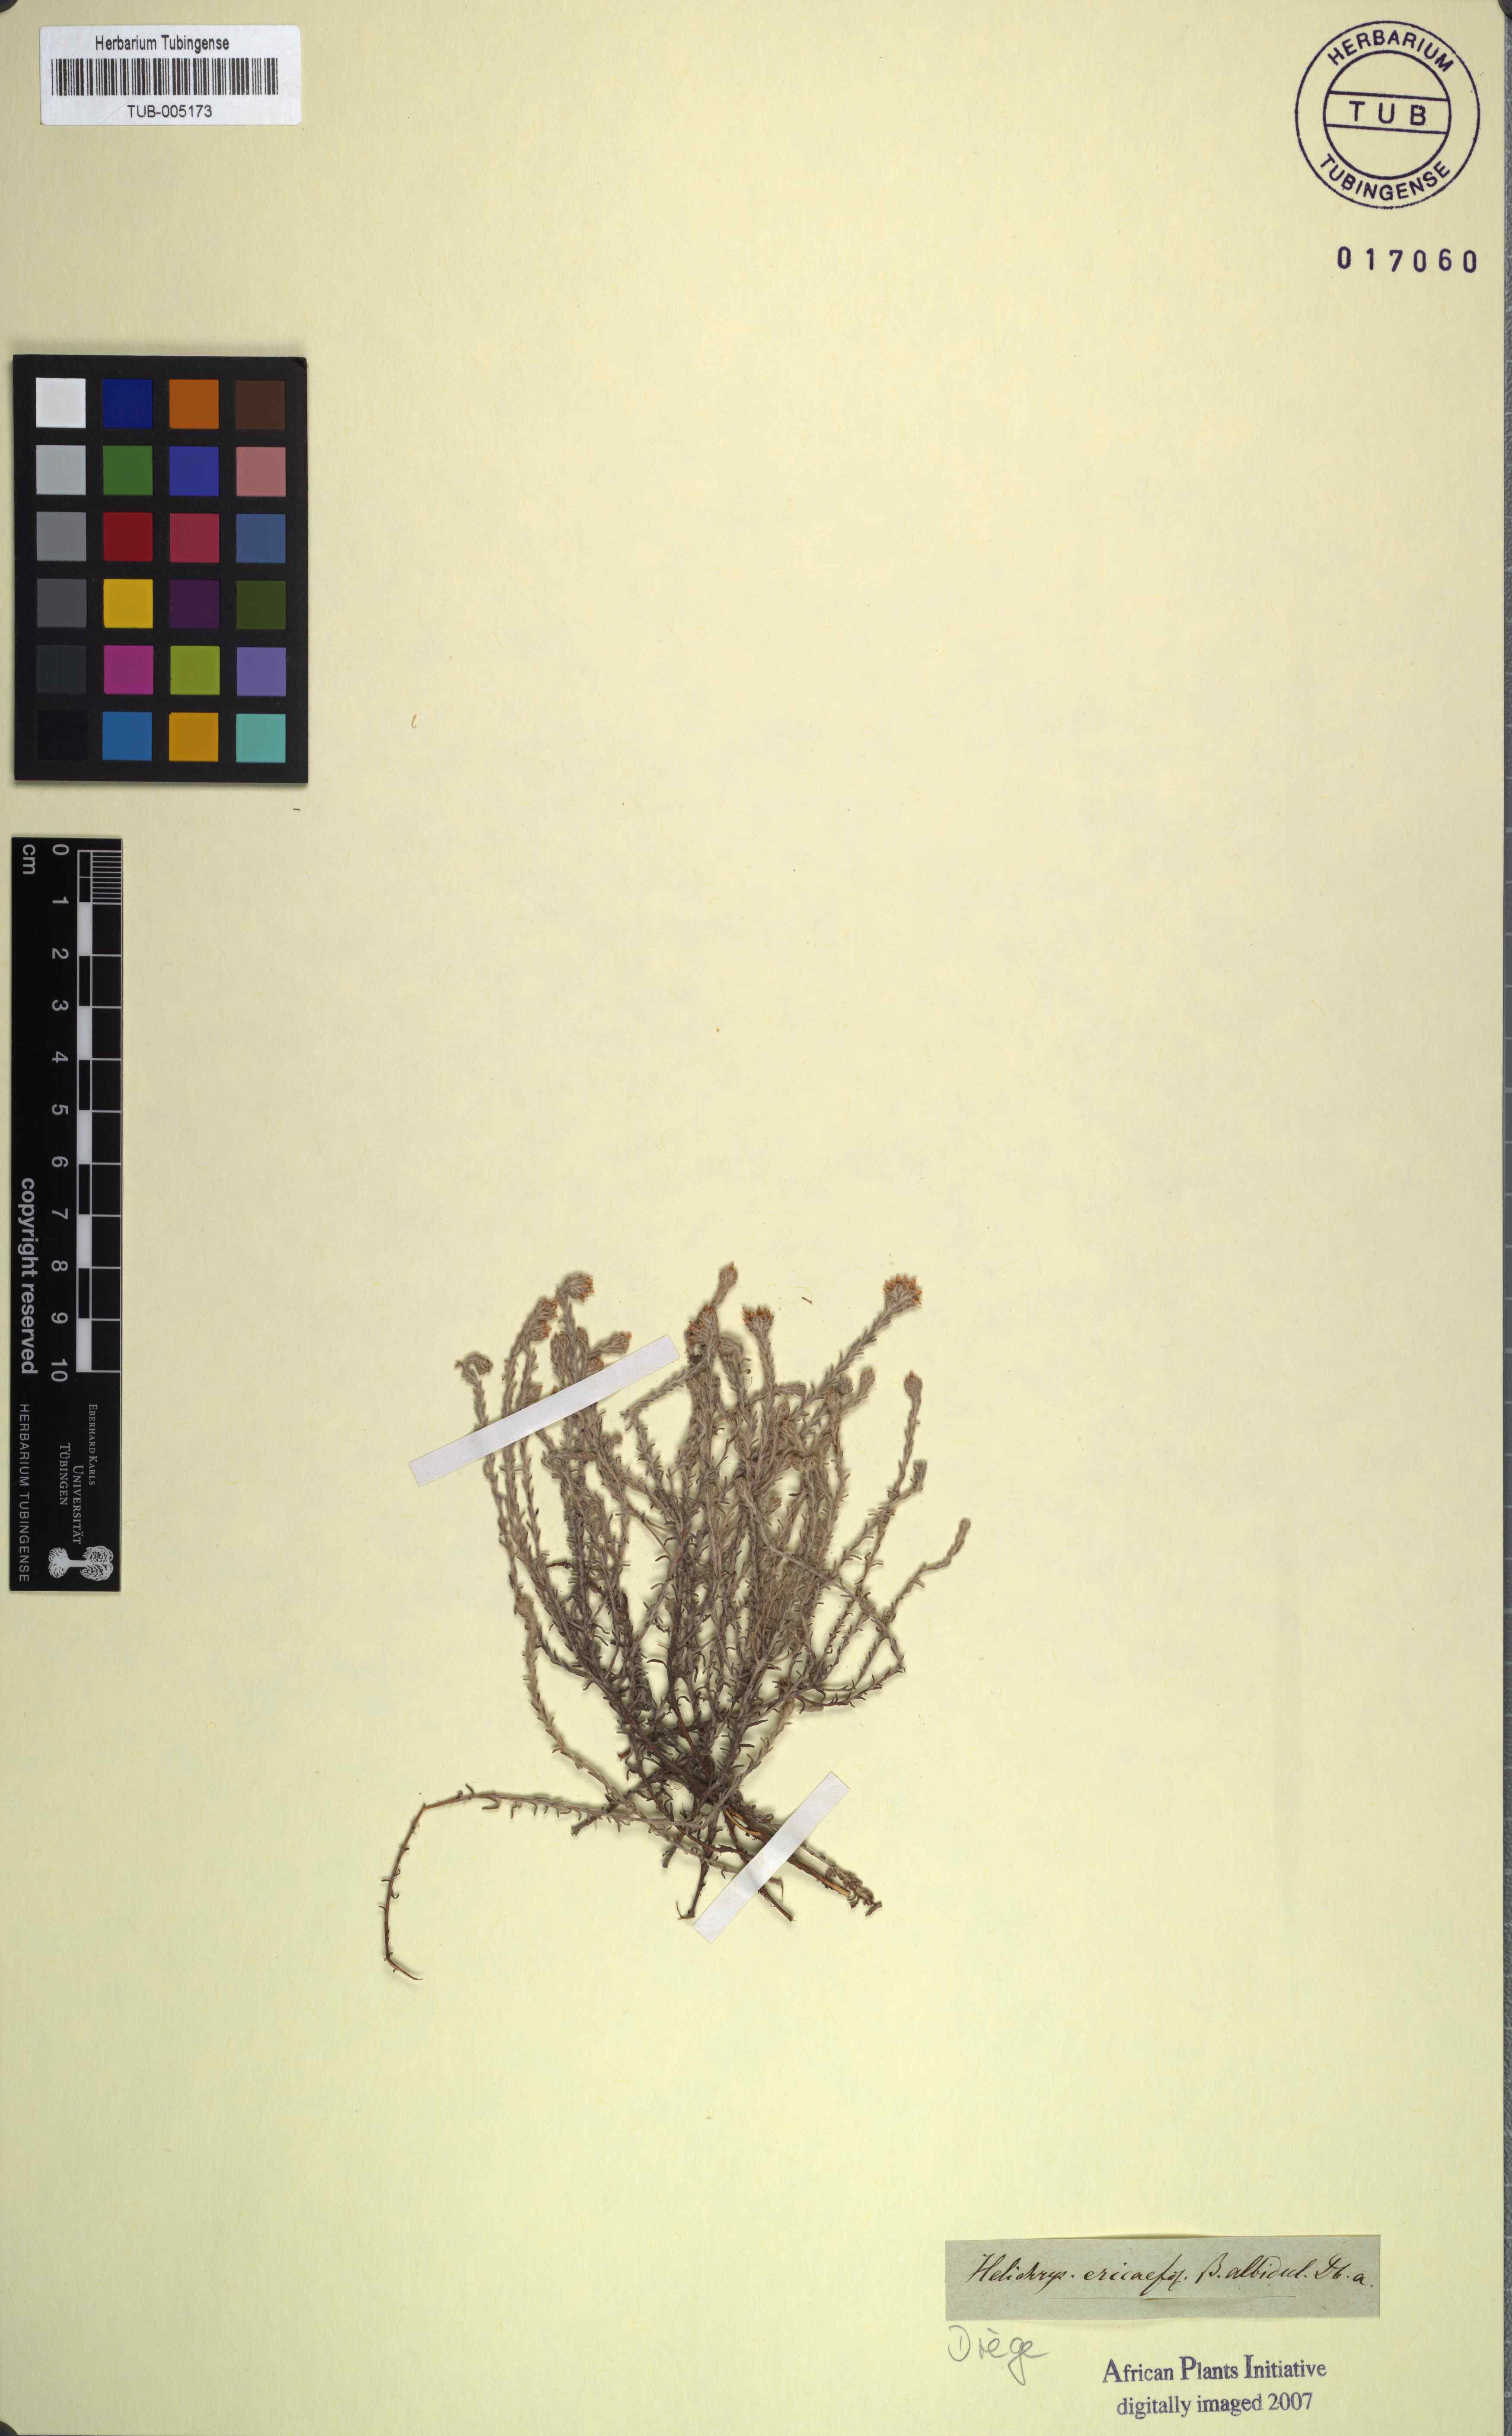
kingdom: Plantae
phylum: Tracheophyta
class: Magnoliopsida
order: Asterales
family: Asteraceae
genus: Helichrysum
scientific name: Helichrysum asperum
